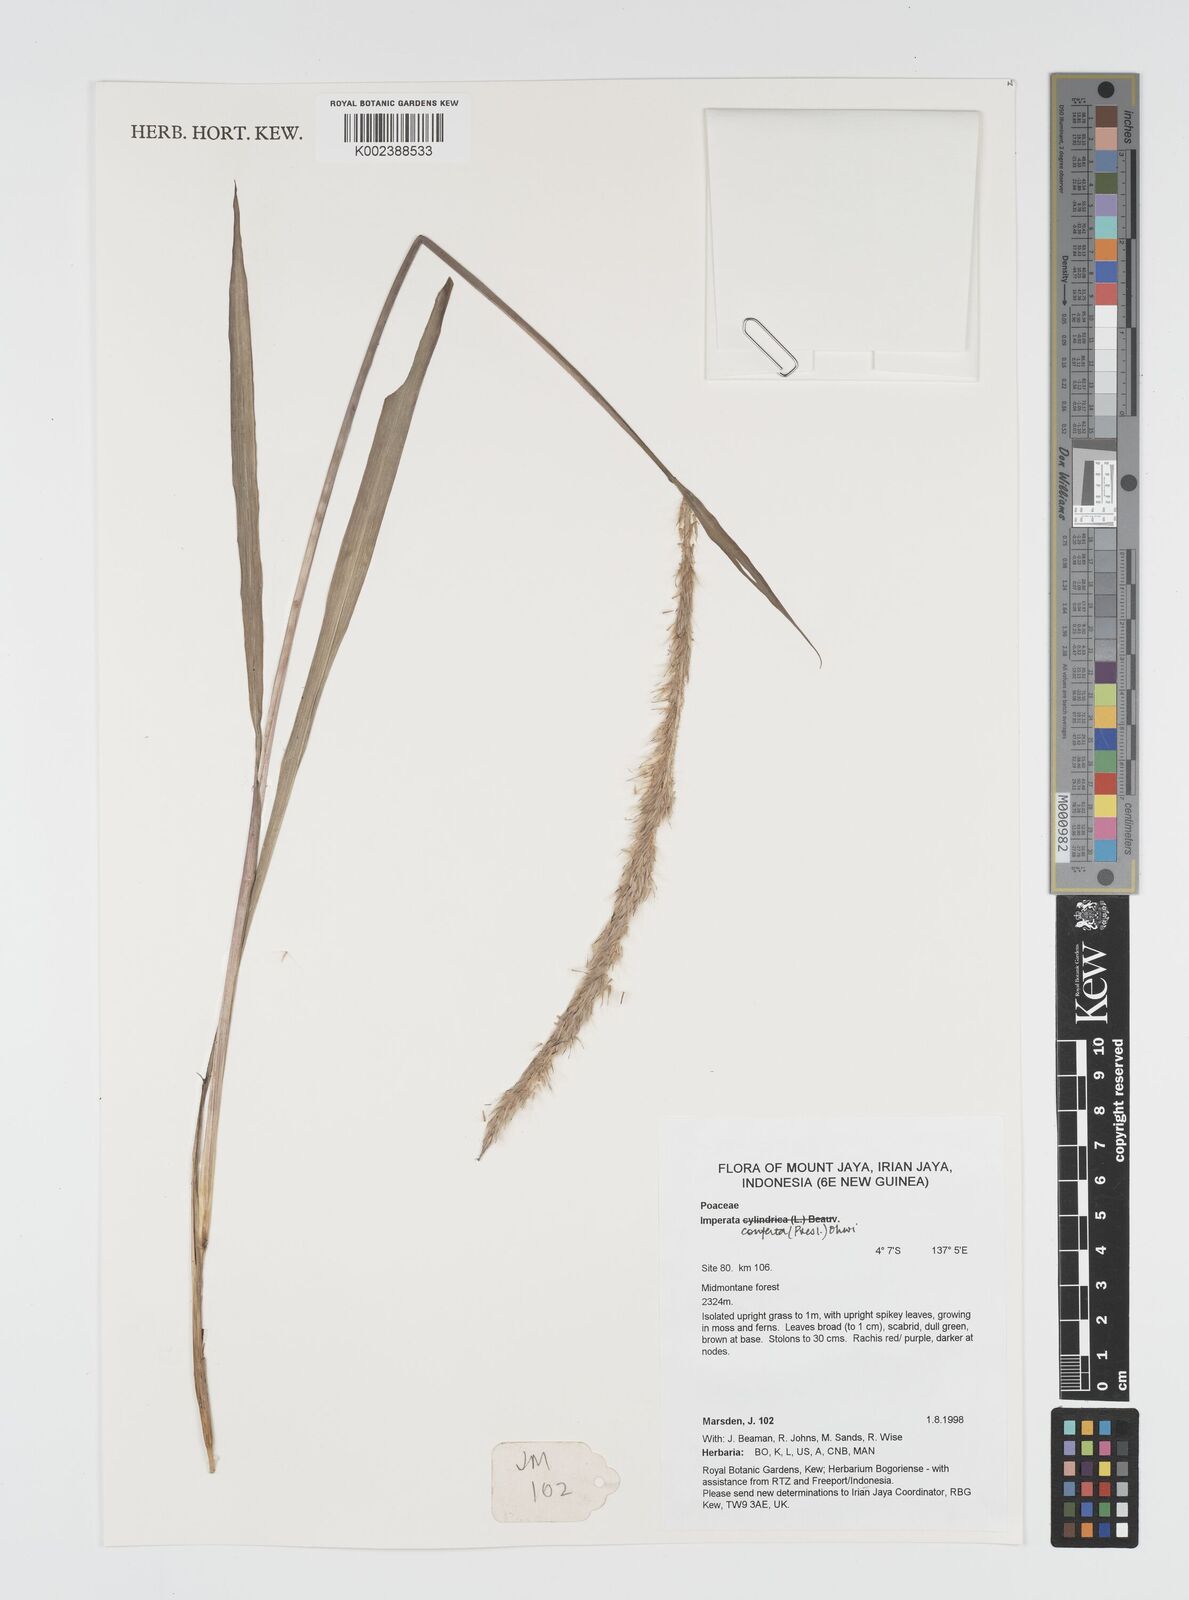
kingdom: Plantae
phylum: Tracheophyta
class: Liliopsida
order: Poales
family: Poaceae
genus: Imperata
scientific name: Imperata conferta
